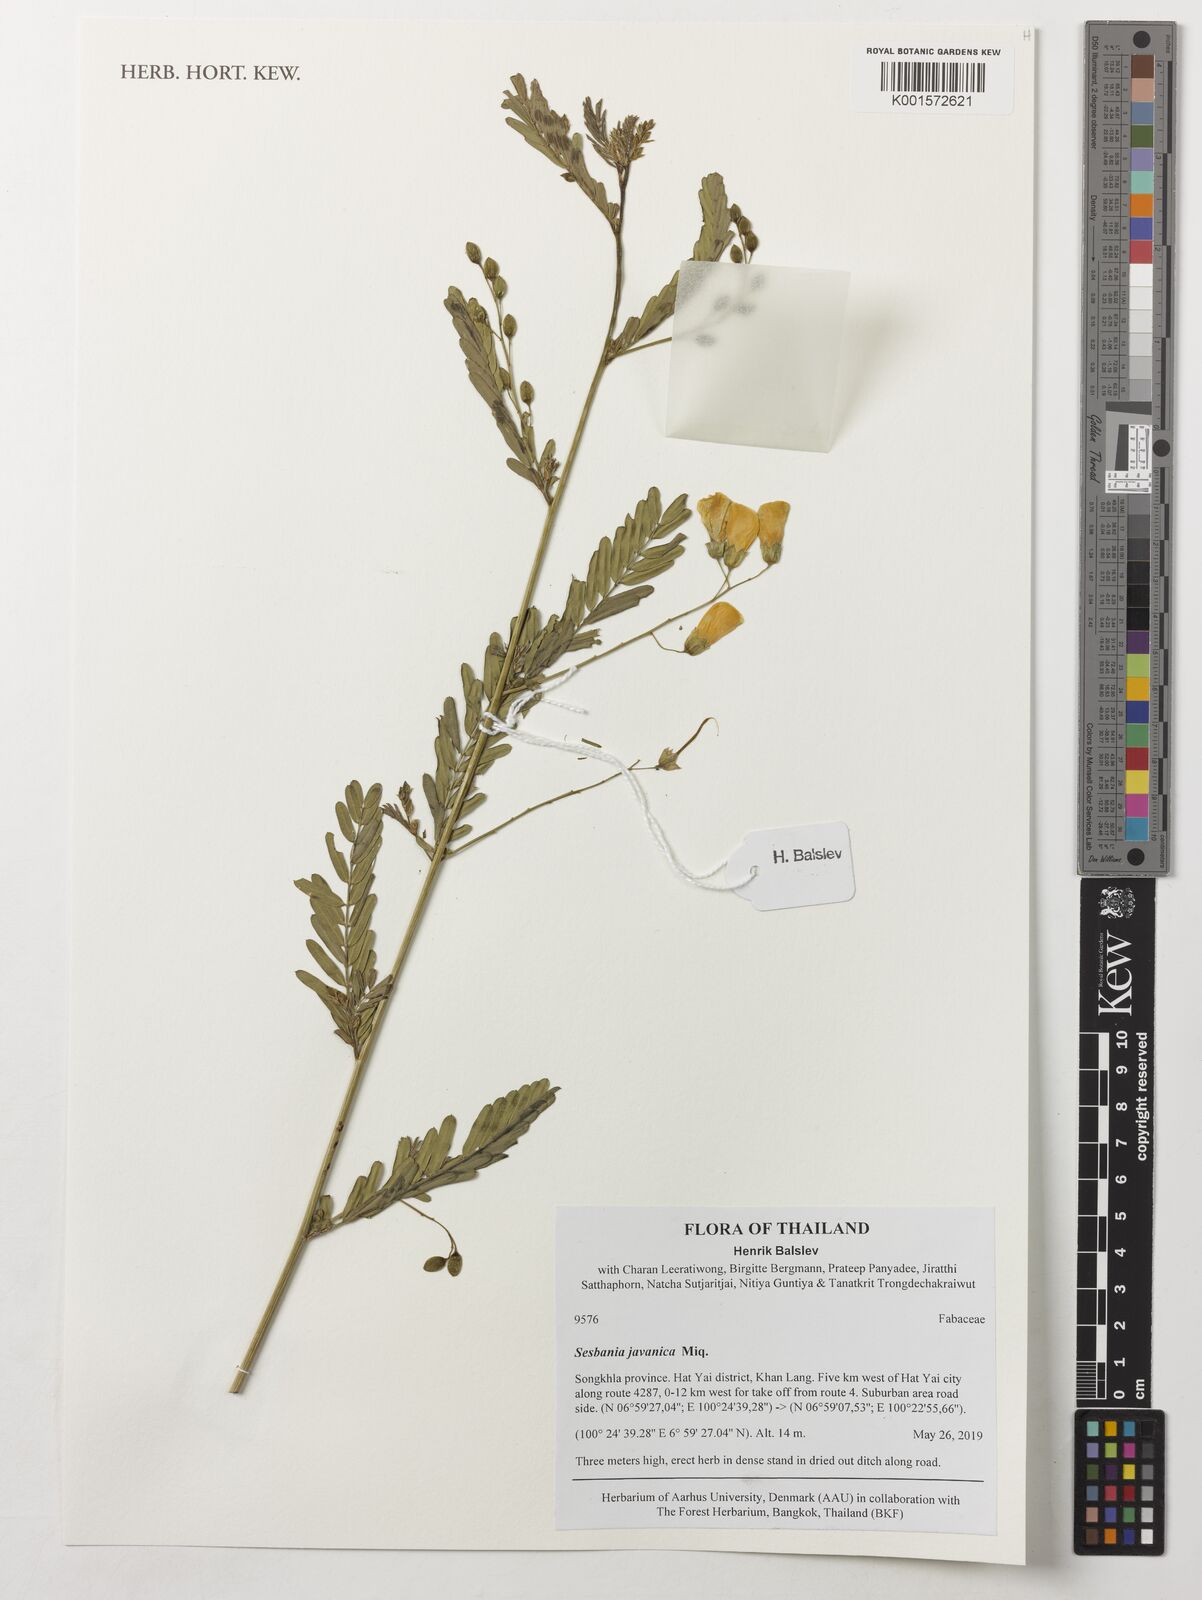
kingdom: Plantae
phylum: Tracheophyta
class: Magnoliopsida
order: Fabales
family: Fabaceae
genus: Sesbania
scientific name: Sesbania javanica
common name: Sesbania-pea
